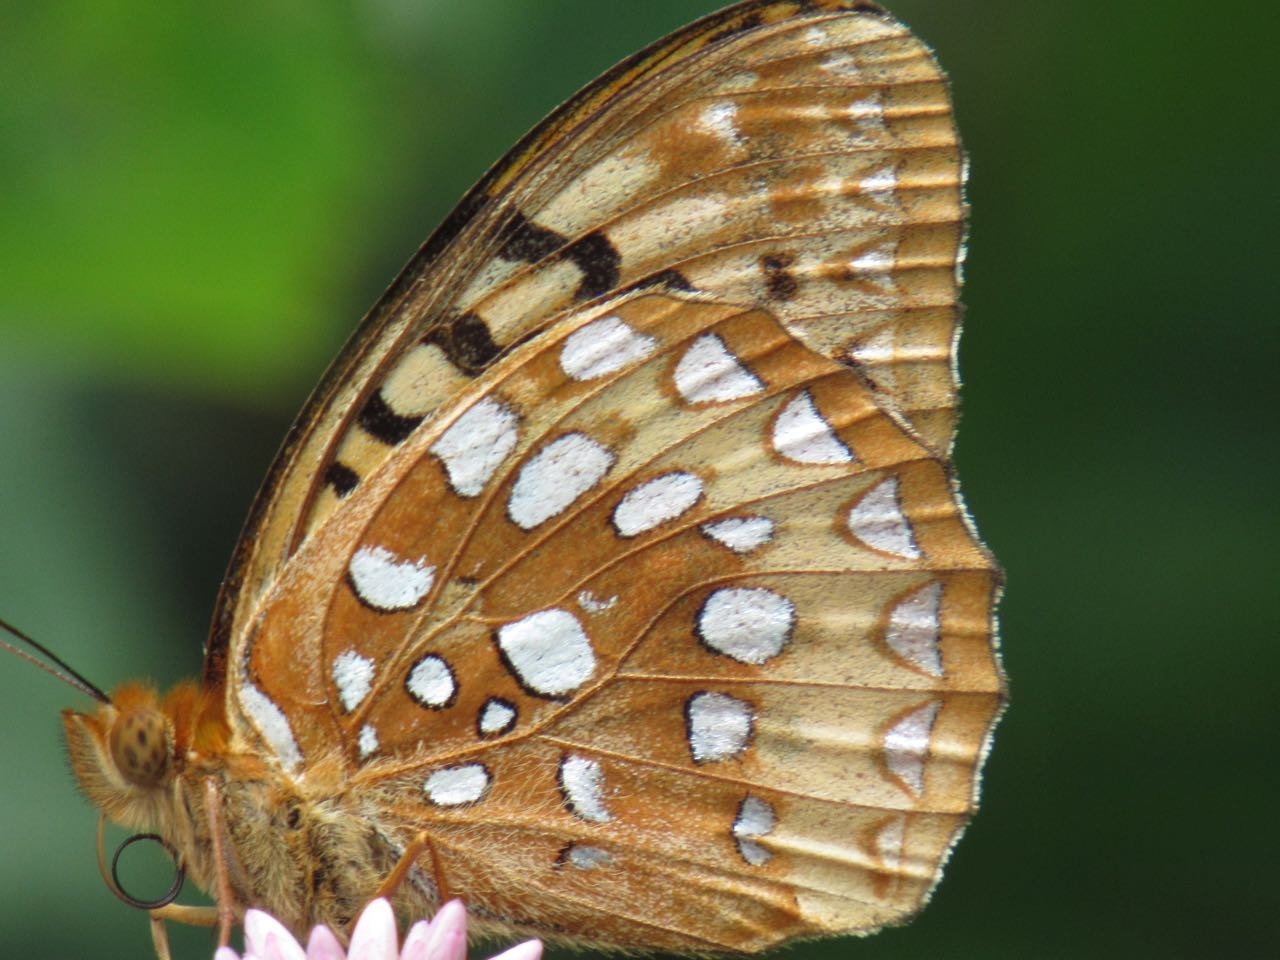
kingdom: Animalia
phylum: Arthropoda
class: Insecta
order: Lepidoptera
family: Nymphalidae
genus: Speyeria
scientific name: Speyeria cybele
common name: Great Spangled Fritillary
